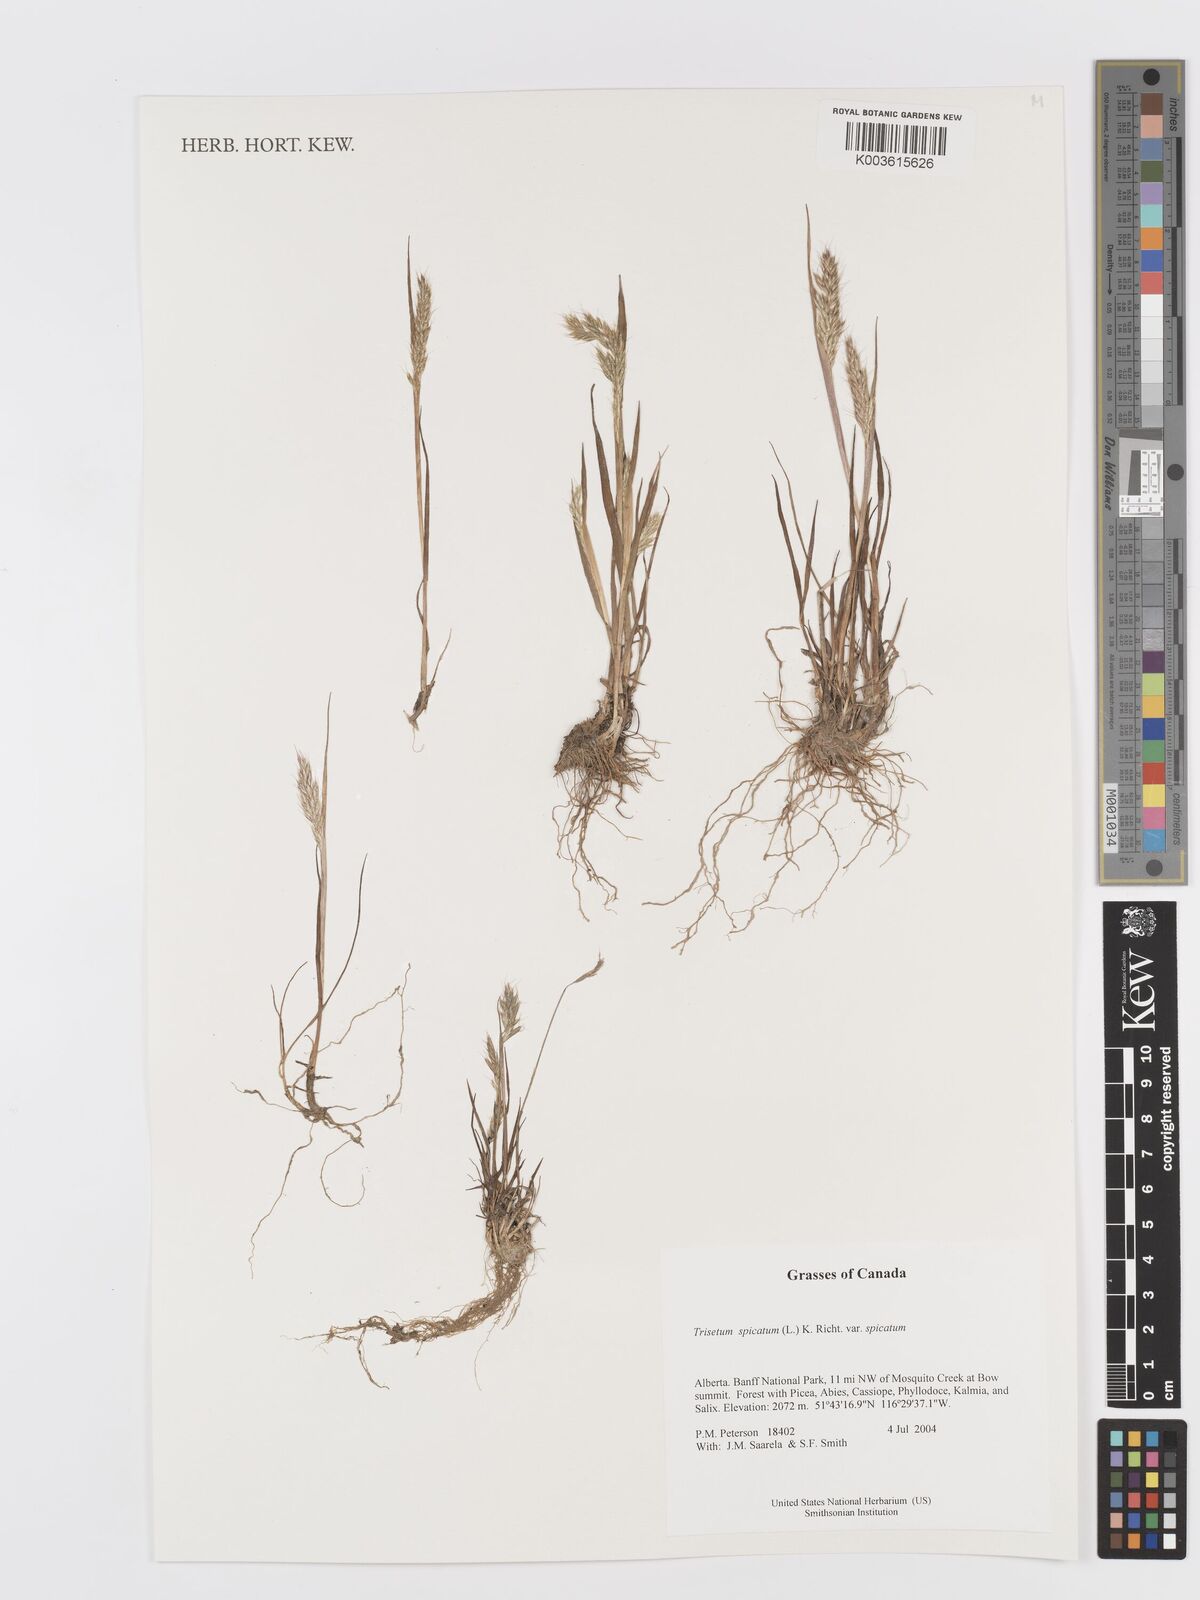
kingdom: Plantae
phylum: Tracheophyta
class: Liliopsida
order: Poales
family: Poaceae
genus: Koeleria
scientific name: Koeleria spicata
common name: Mountain trisetum
